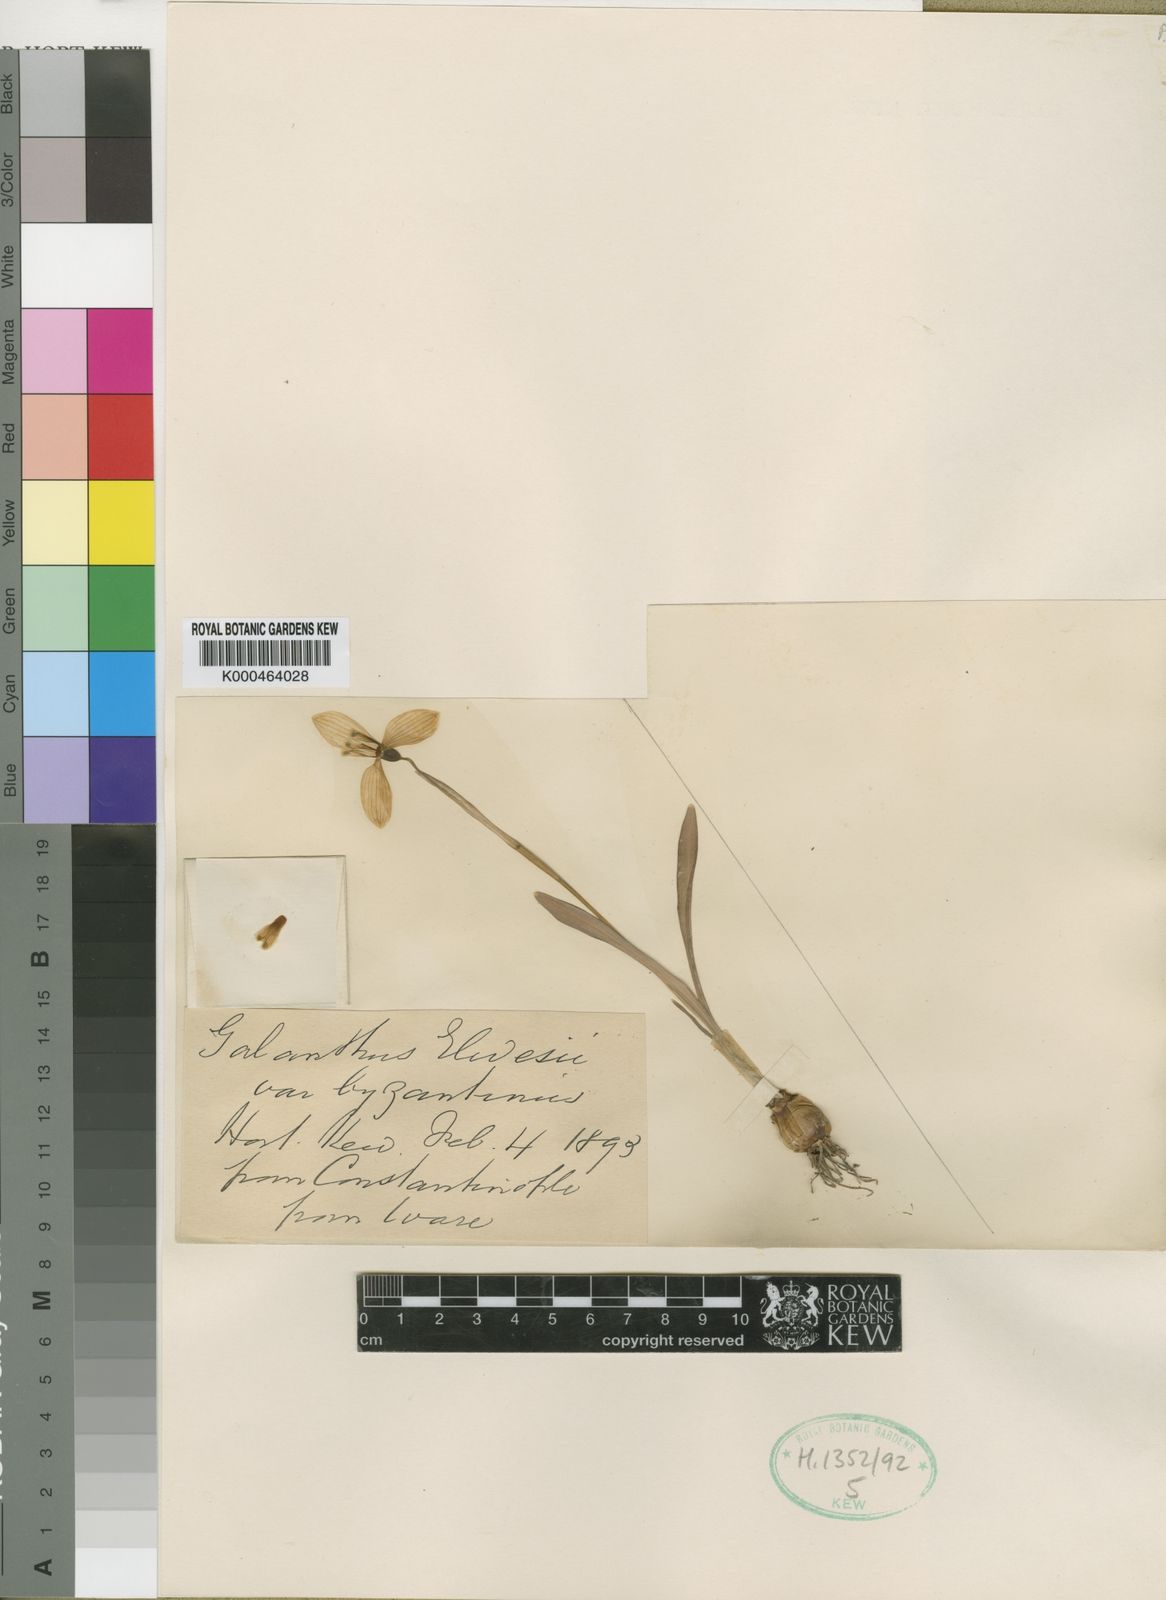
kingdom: Plantae
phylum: Tracheophyta
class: Liliopsida
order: Asparagales
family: Amaryllidaceae
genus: Galanthus
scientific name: Galanthus plicatus
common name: Pleated snowdrop
